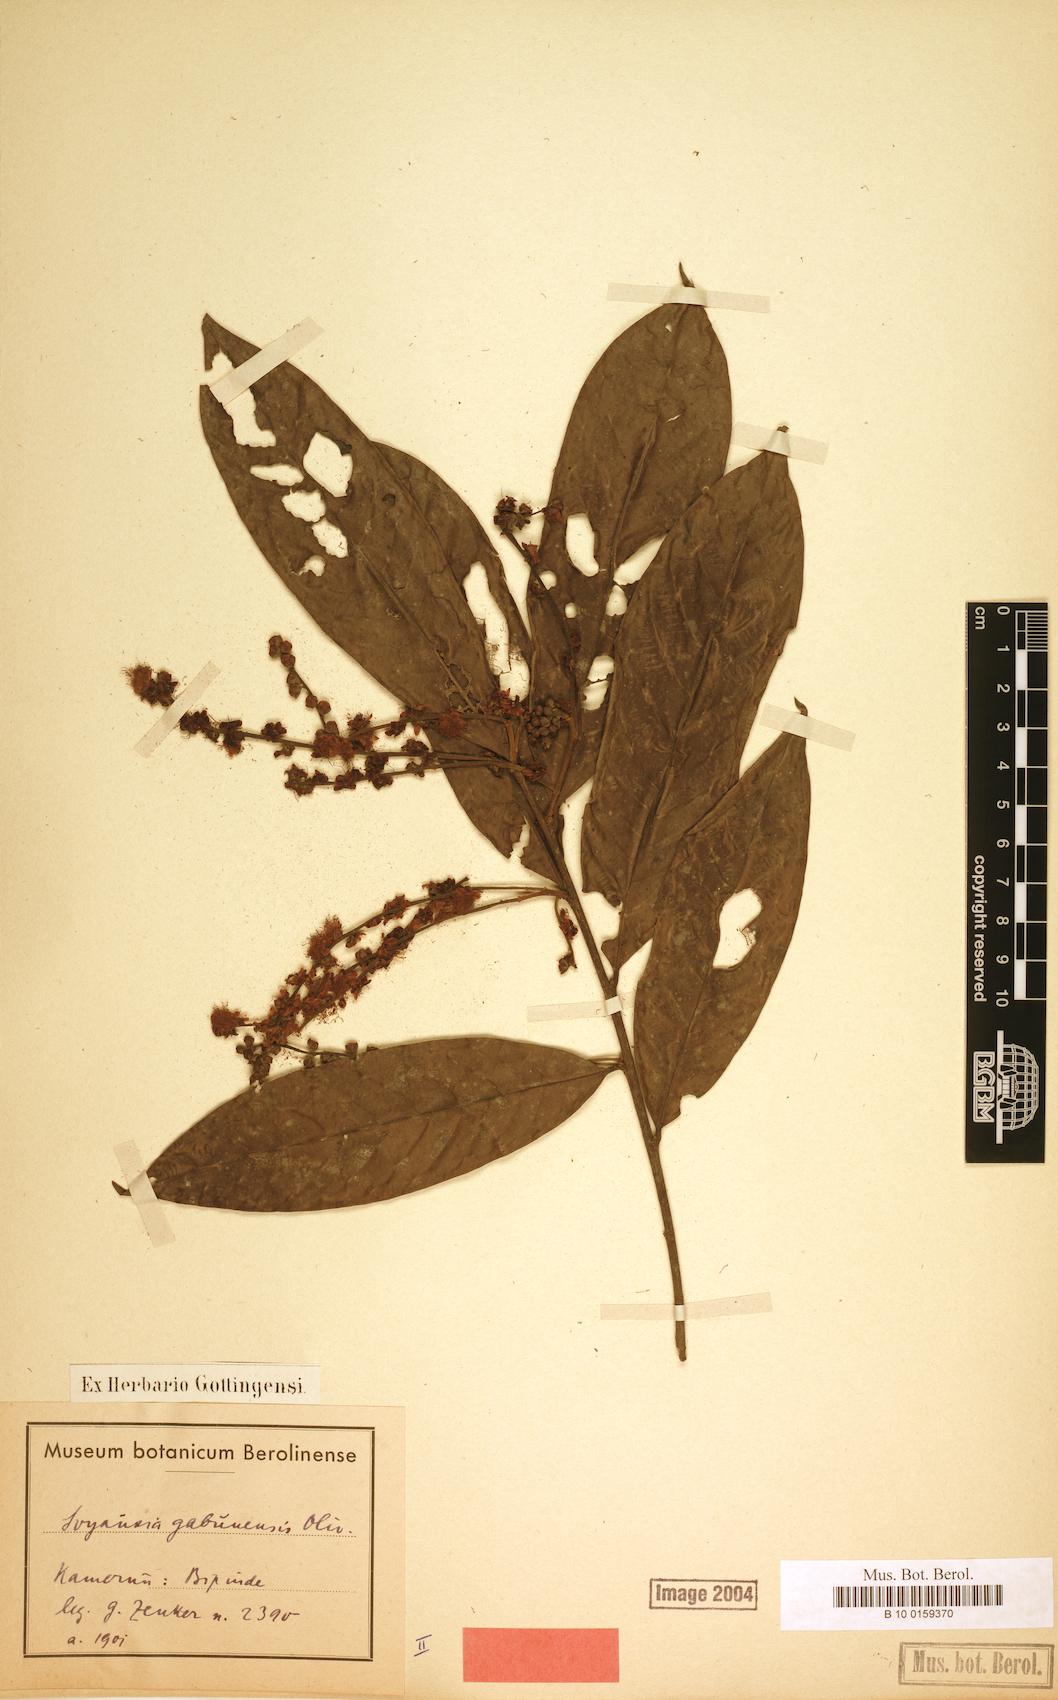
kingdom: Plantae
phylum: Tracheophyta
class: Magnoliopsida
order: Saxifragales
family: Peridiscaceae
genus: Soyauxia
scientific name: Soyauxia gabonensis
